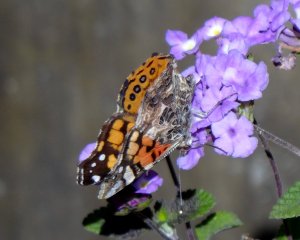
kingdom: Animalia
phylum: Arthropoda
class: Insecta
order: Lepidoptera
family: Nymphalidae
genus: Vanessa
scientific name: Vanessa annabella
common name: West Coast Lady
